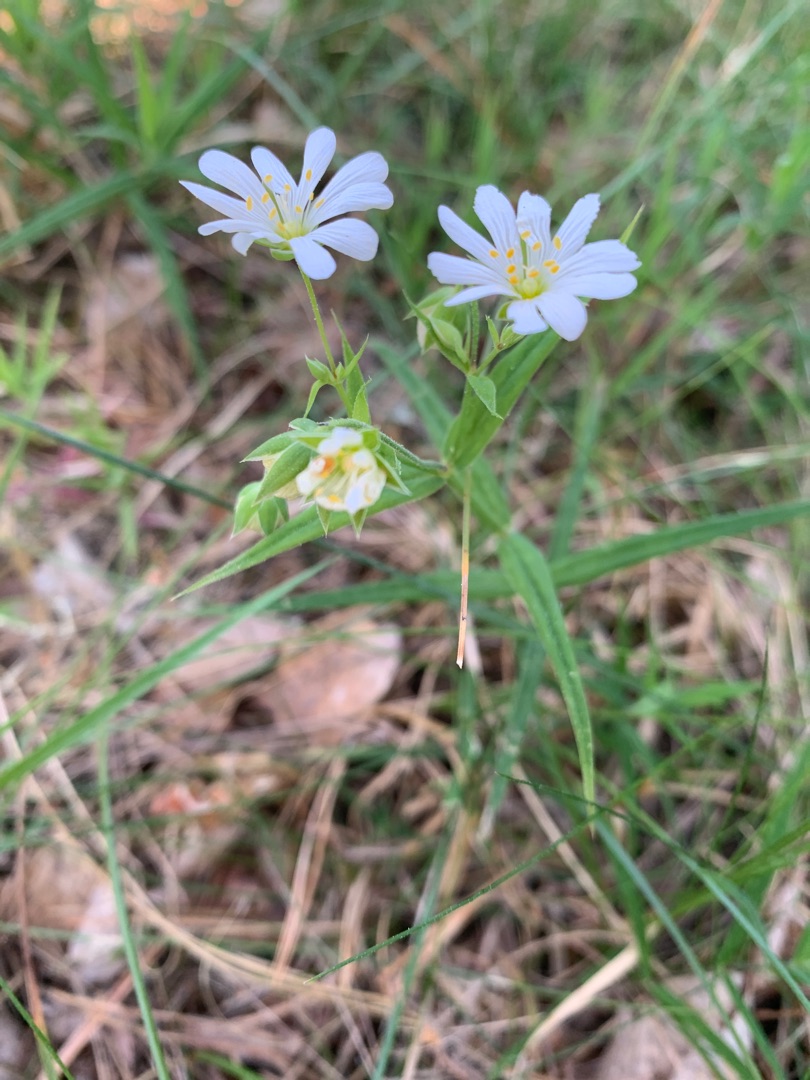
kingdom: Plantae
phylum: Tracheophyta
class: Magnoliopsida
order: Caryophyllales
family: Caryophyllaceae
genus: Rabelera
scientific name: Rabelera holostea
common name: Stor fladstjerne
